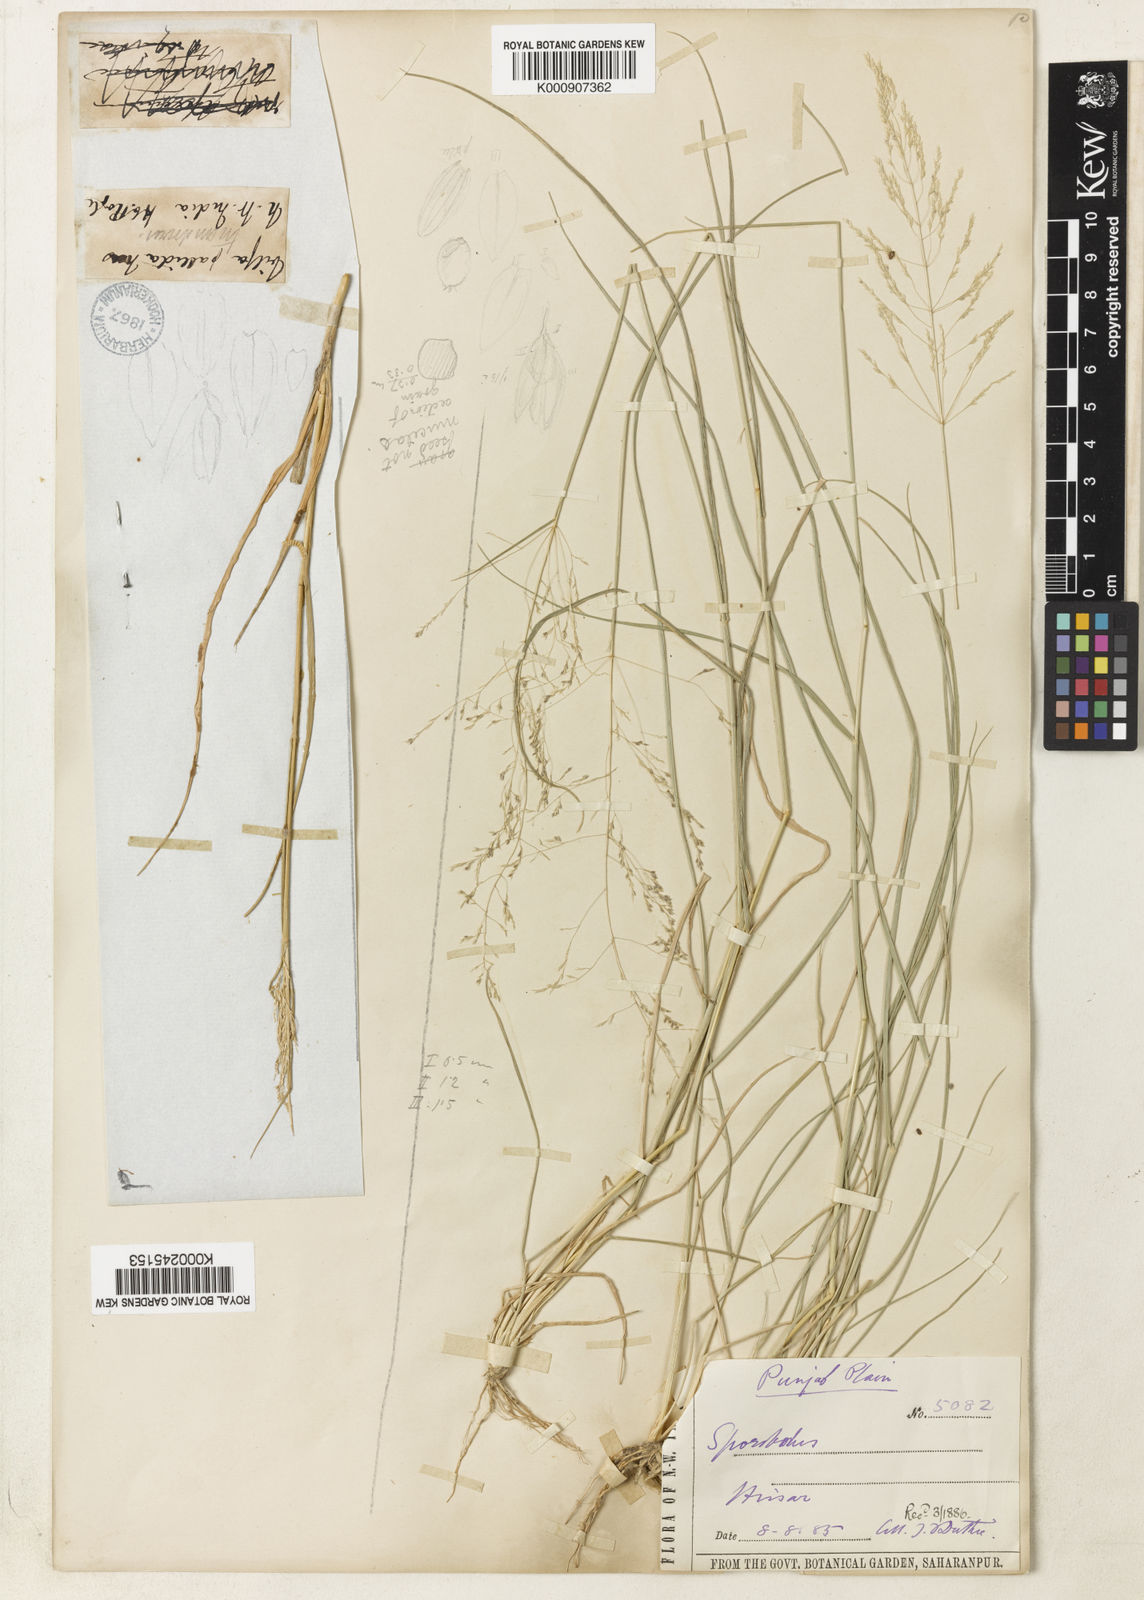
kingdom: Plantae
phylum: Tracheophyta
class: Liliopsida
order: Poales
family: Poaceae
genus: Sporobolus
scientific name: Sporobolus ioclados
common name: Pan dropseed
